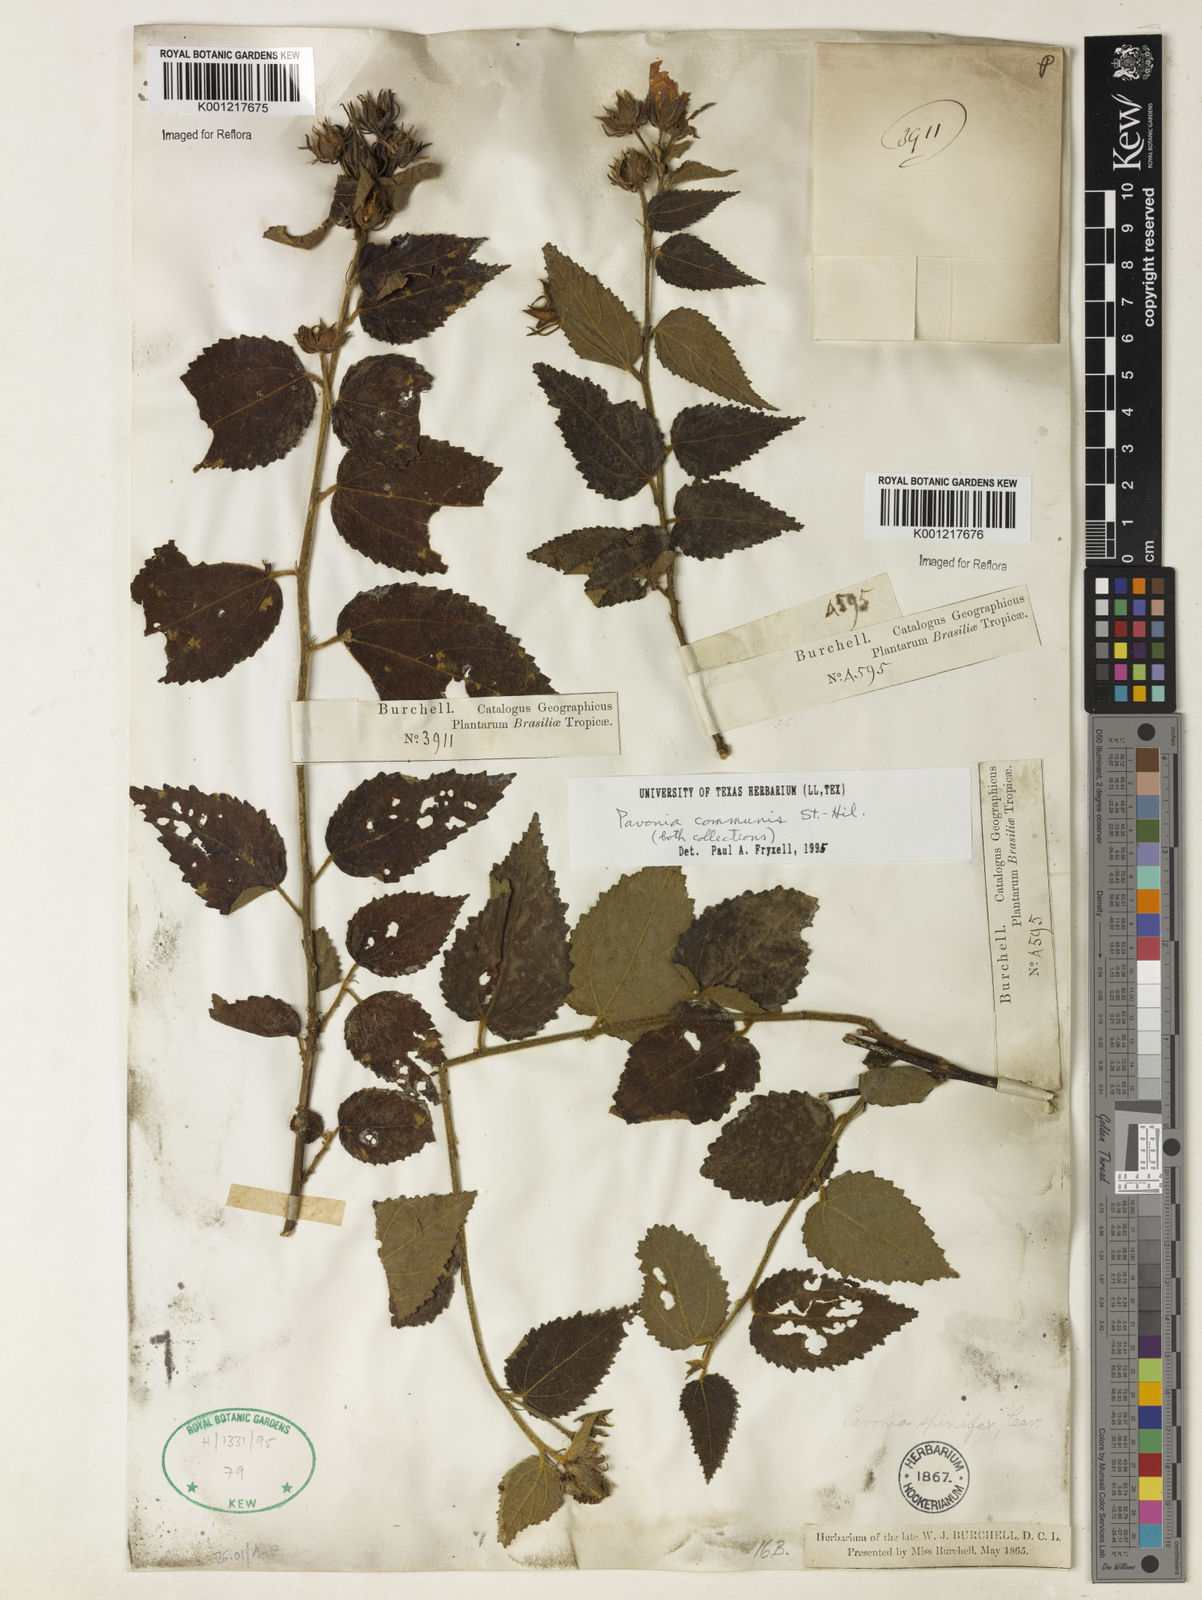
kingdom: Plantae
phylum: Tracheophyta
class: Magnoliopsida
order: Malvales
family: Malvaceae
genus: Pavonia
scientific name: Pavonia communis
